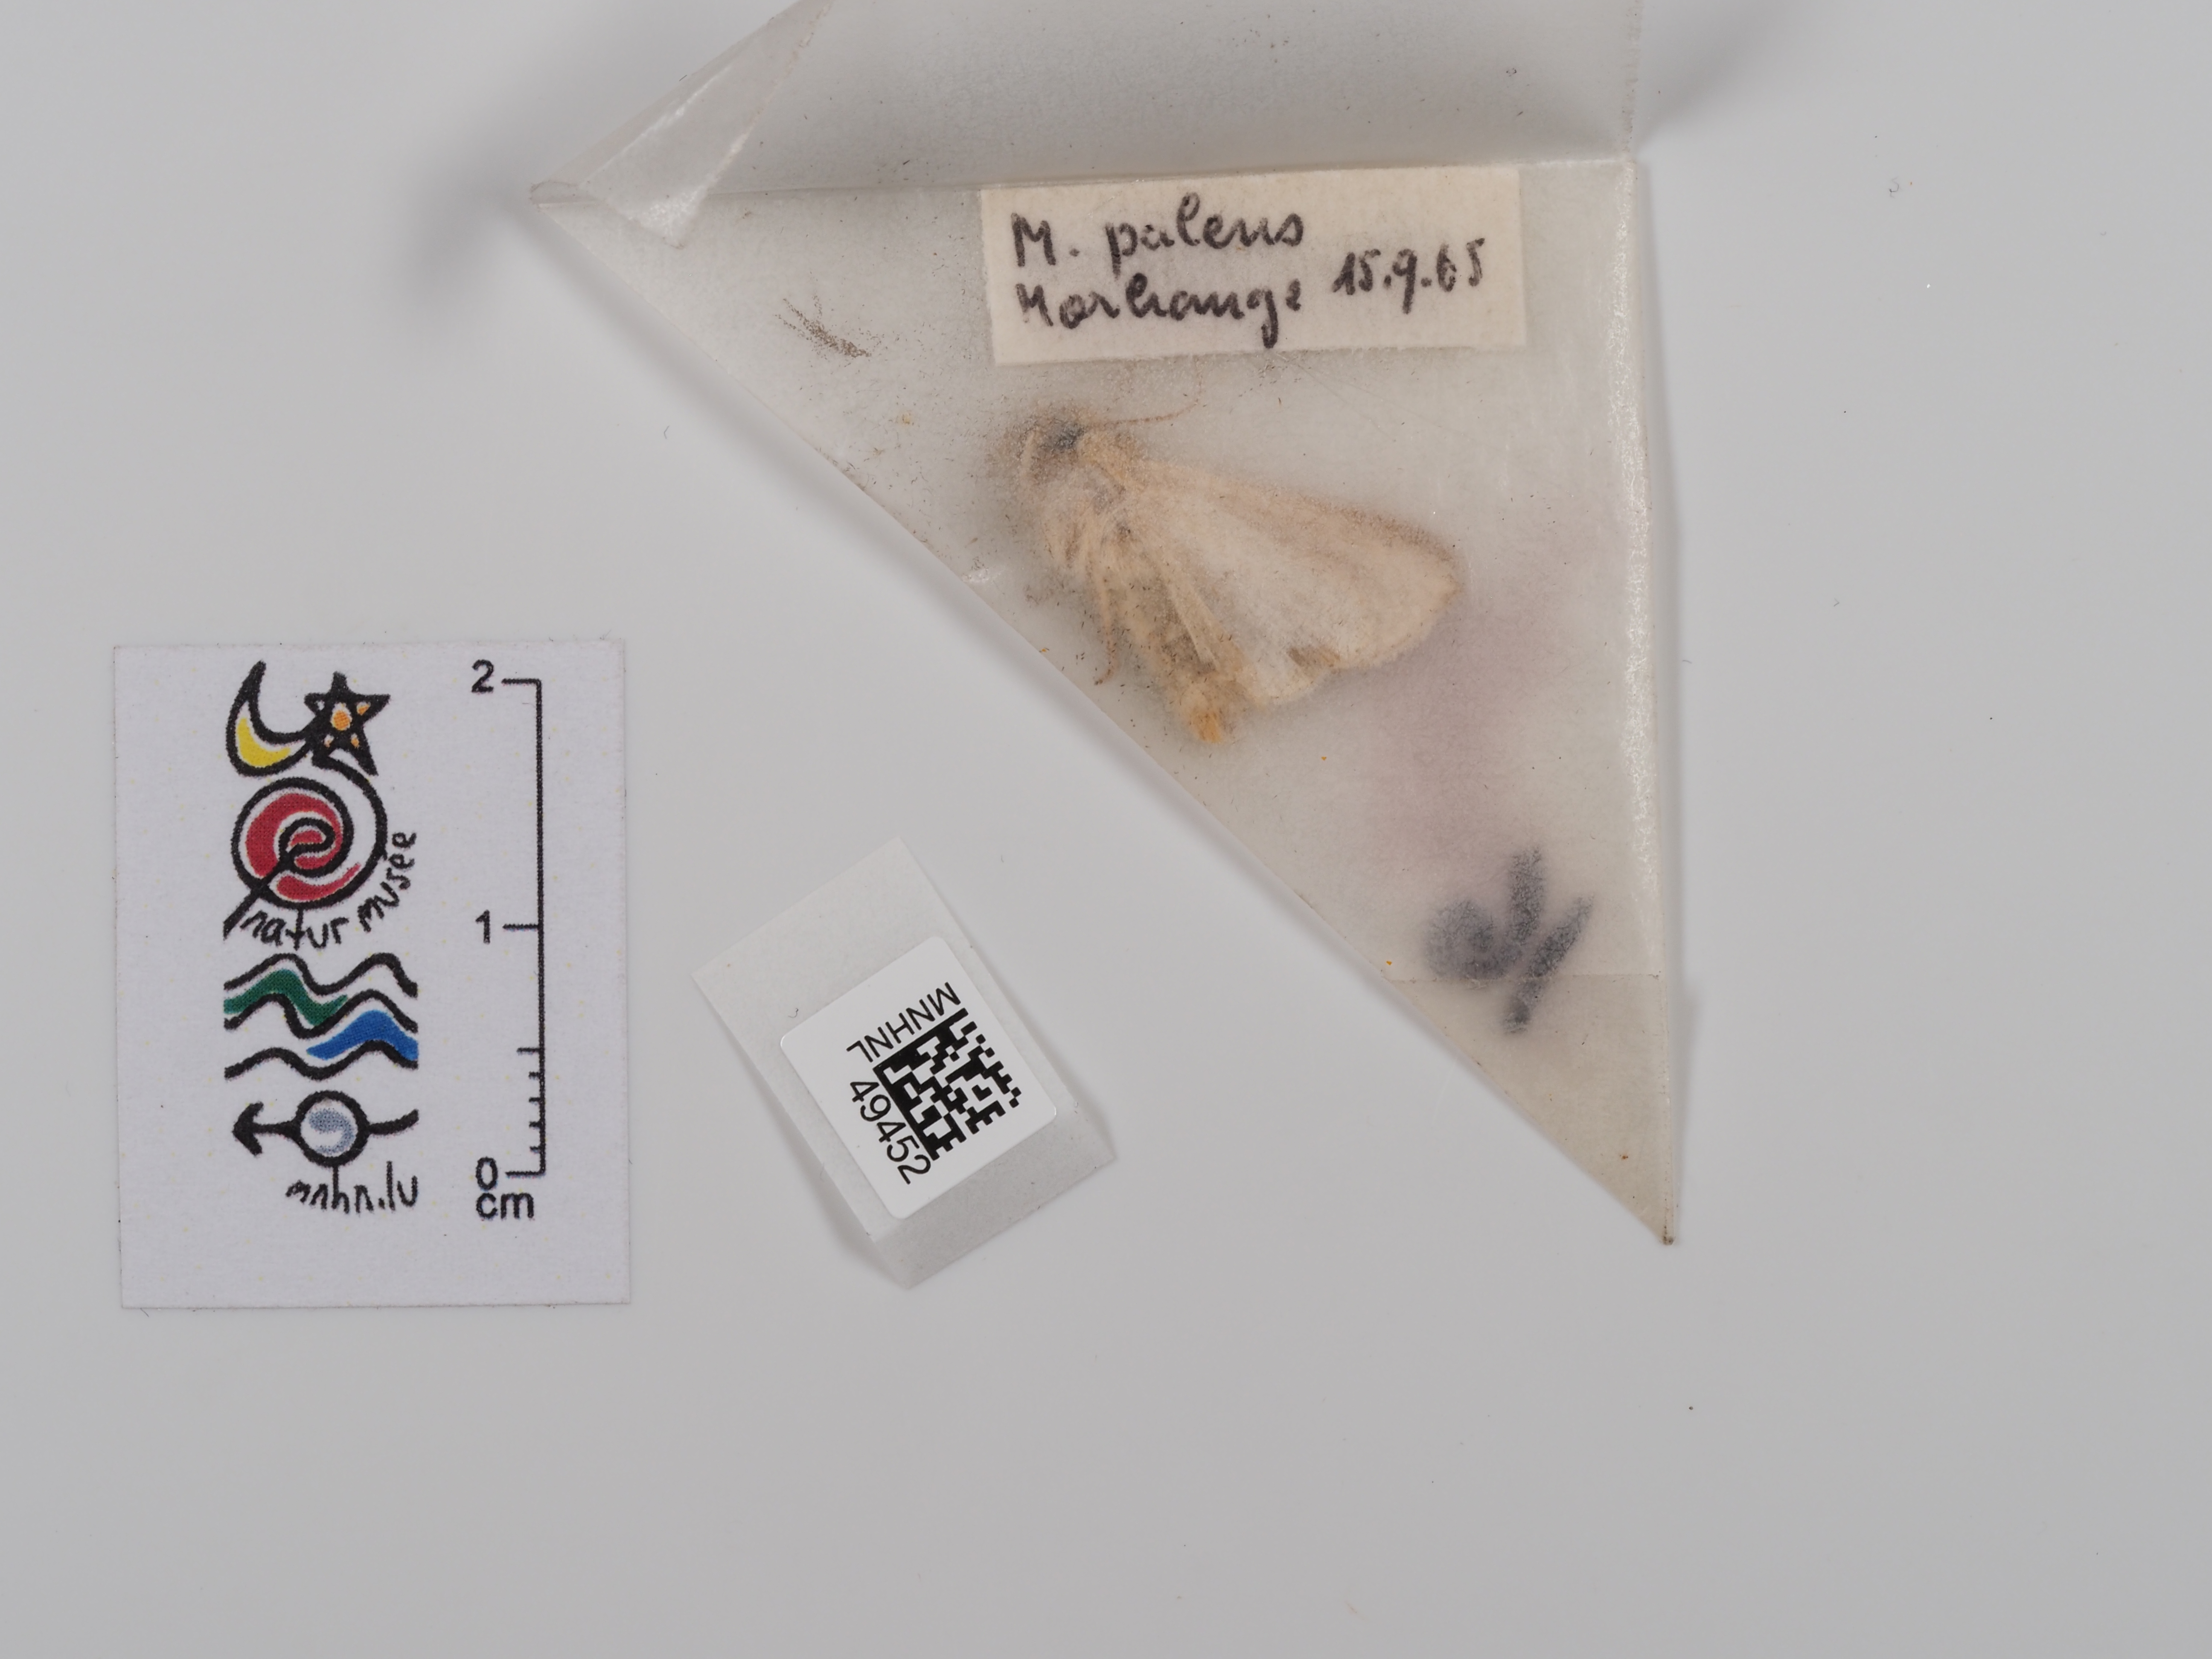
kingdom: Animalia
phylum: Arthropoda
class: Insecta
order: Lepidoptera
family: Noctuidae
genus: Mythimna
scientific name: Mythimna pallens
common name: Common wainscot
